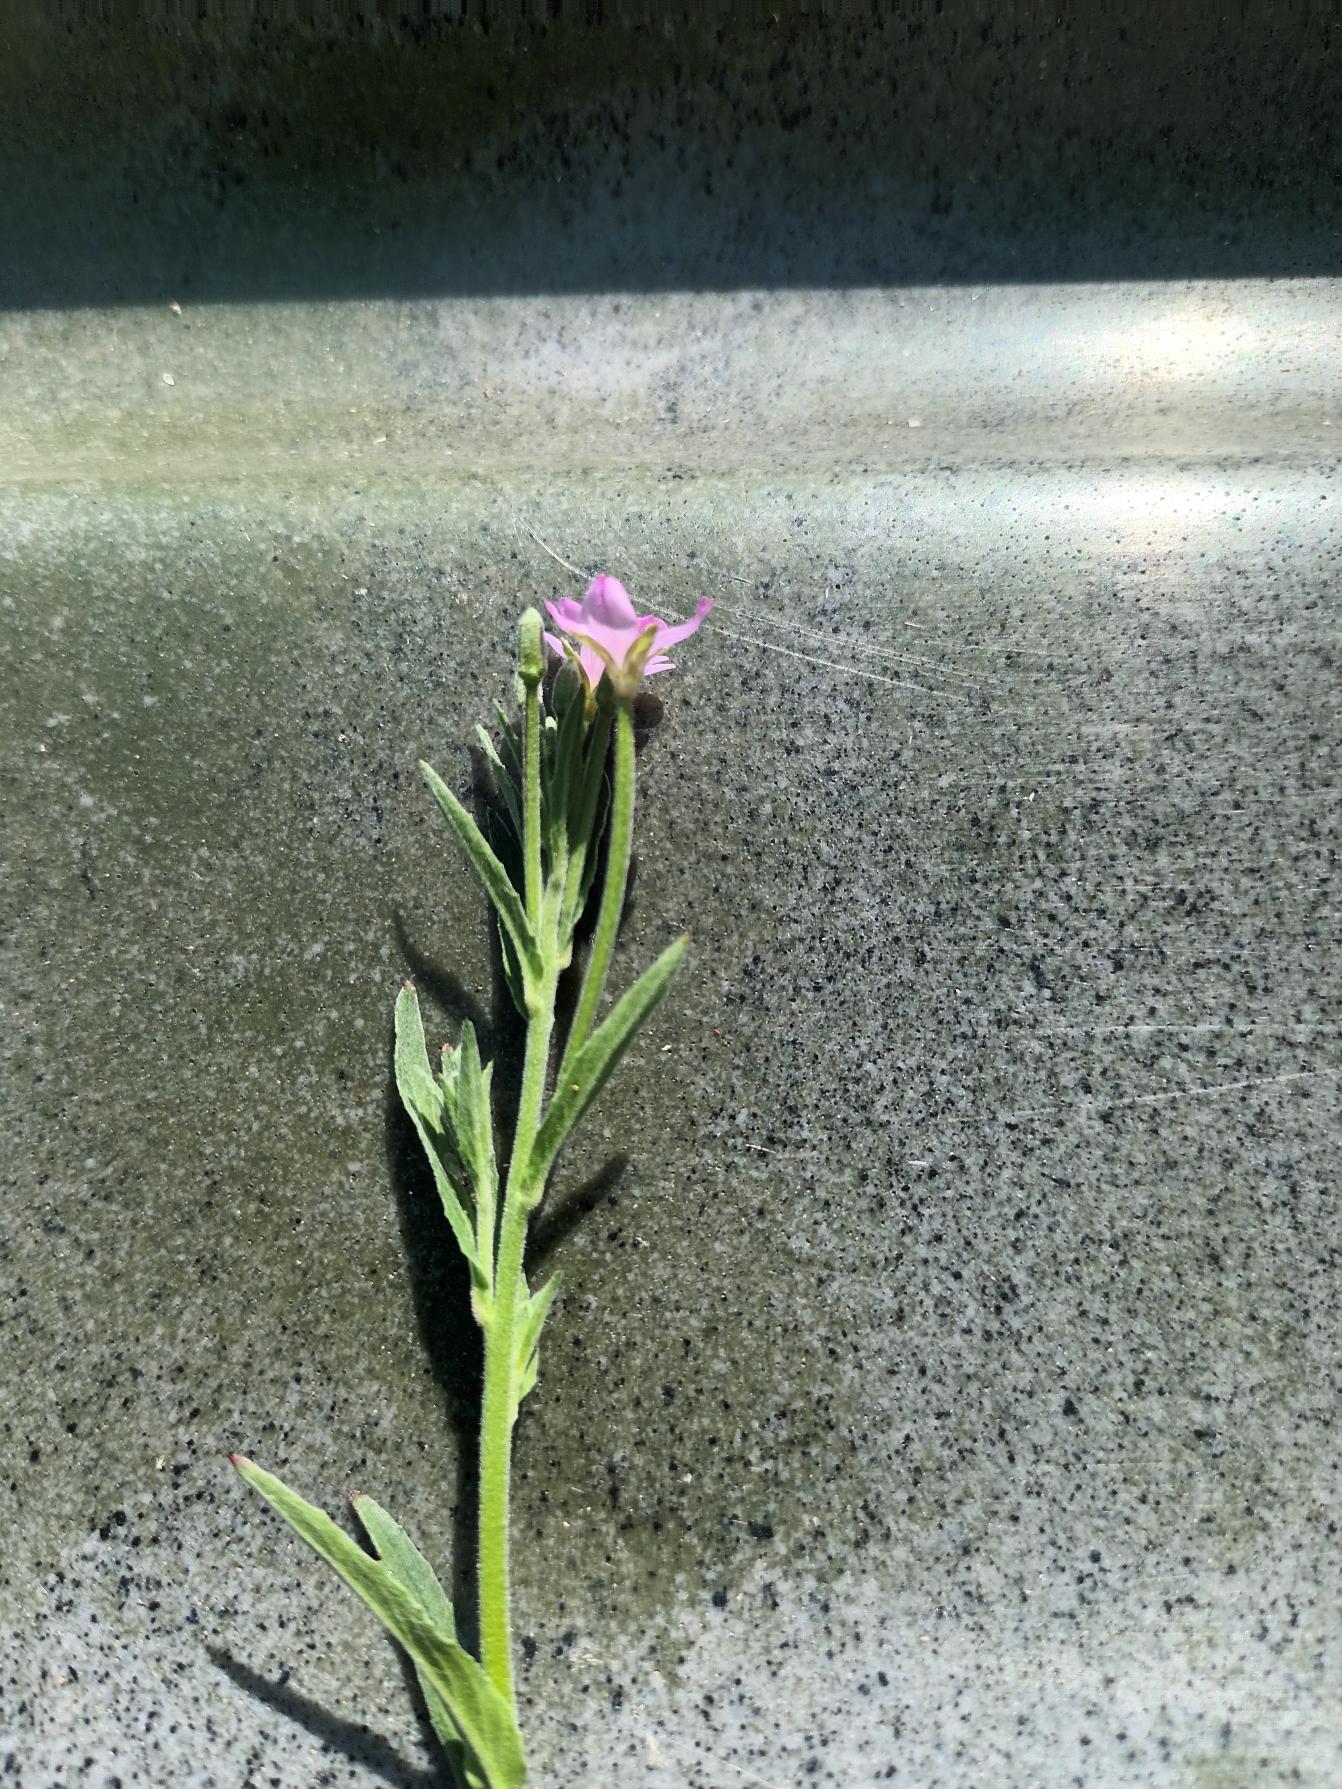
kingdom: Plantae
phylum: Tracheophyta
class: Magnoliopsida
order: Myrtales
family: Onagraceae
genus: Epilobium
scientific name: Epilobium obscurum
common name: Ris-dueurt
